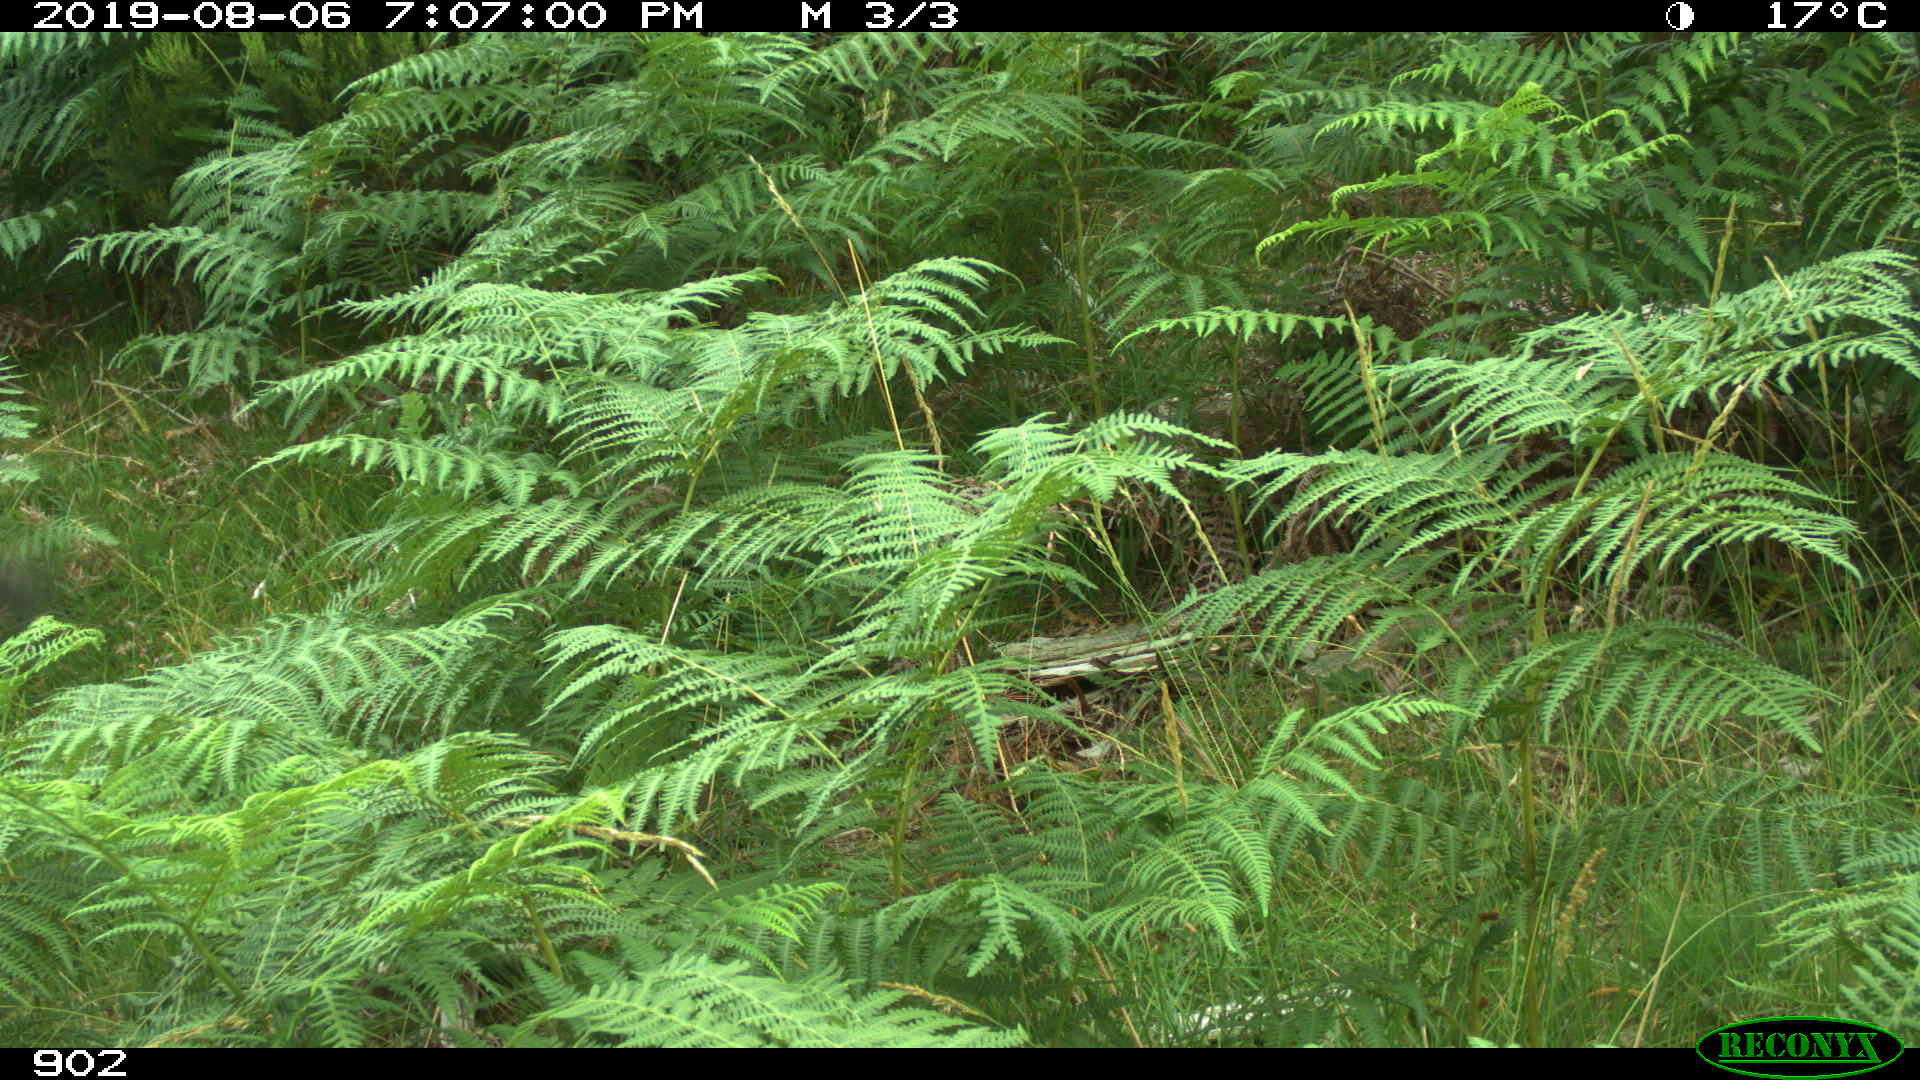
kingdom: Animalia
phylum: Chordata
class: Mammalia
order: Artiodactyla
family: Suidae
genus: Sus
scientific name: Sus scrofa
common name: Wild boar
